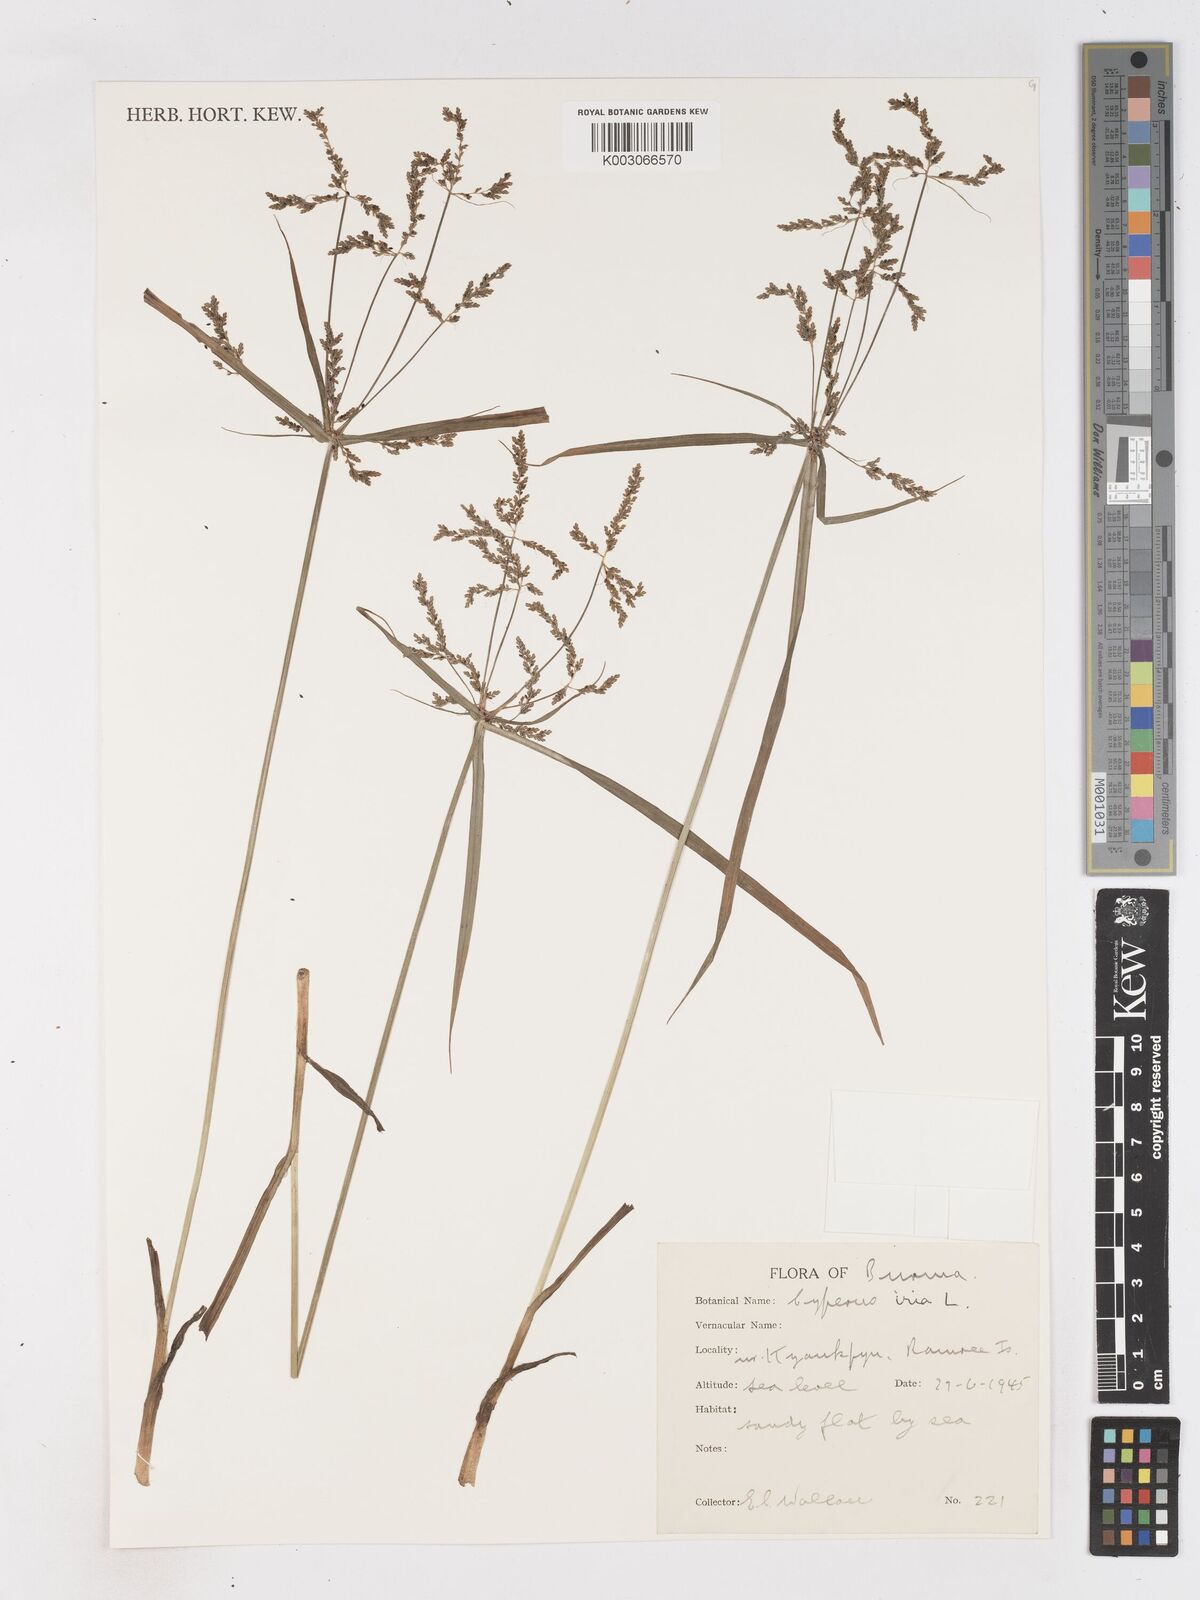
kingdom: Plantae
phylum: Tracheophyta
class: Liliopsida
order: Poales
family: Cyperaceae
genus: Cyperus
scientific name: Cyperus iria
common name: Ricefield flatsedge
